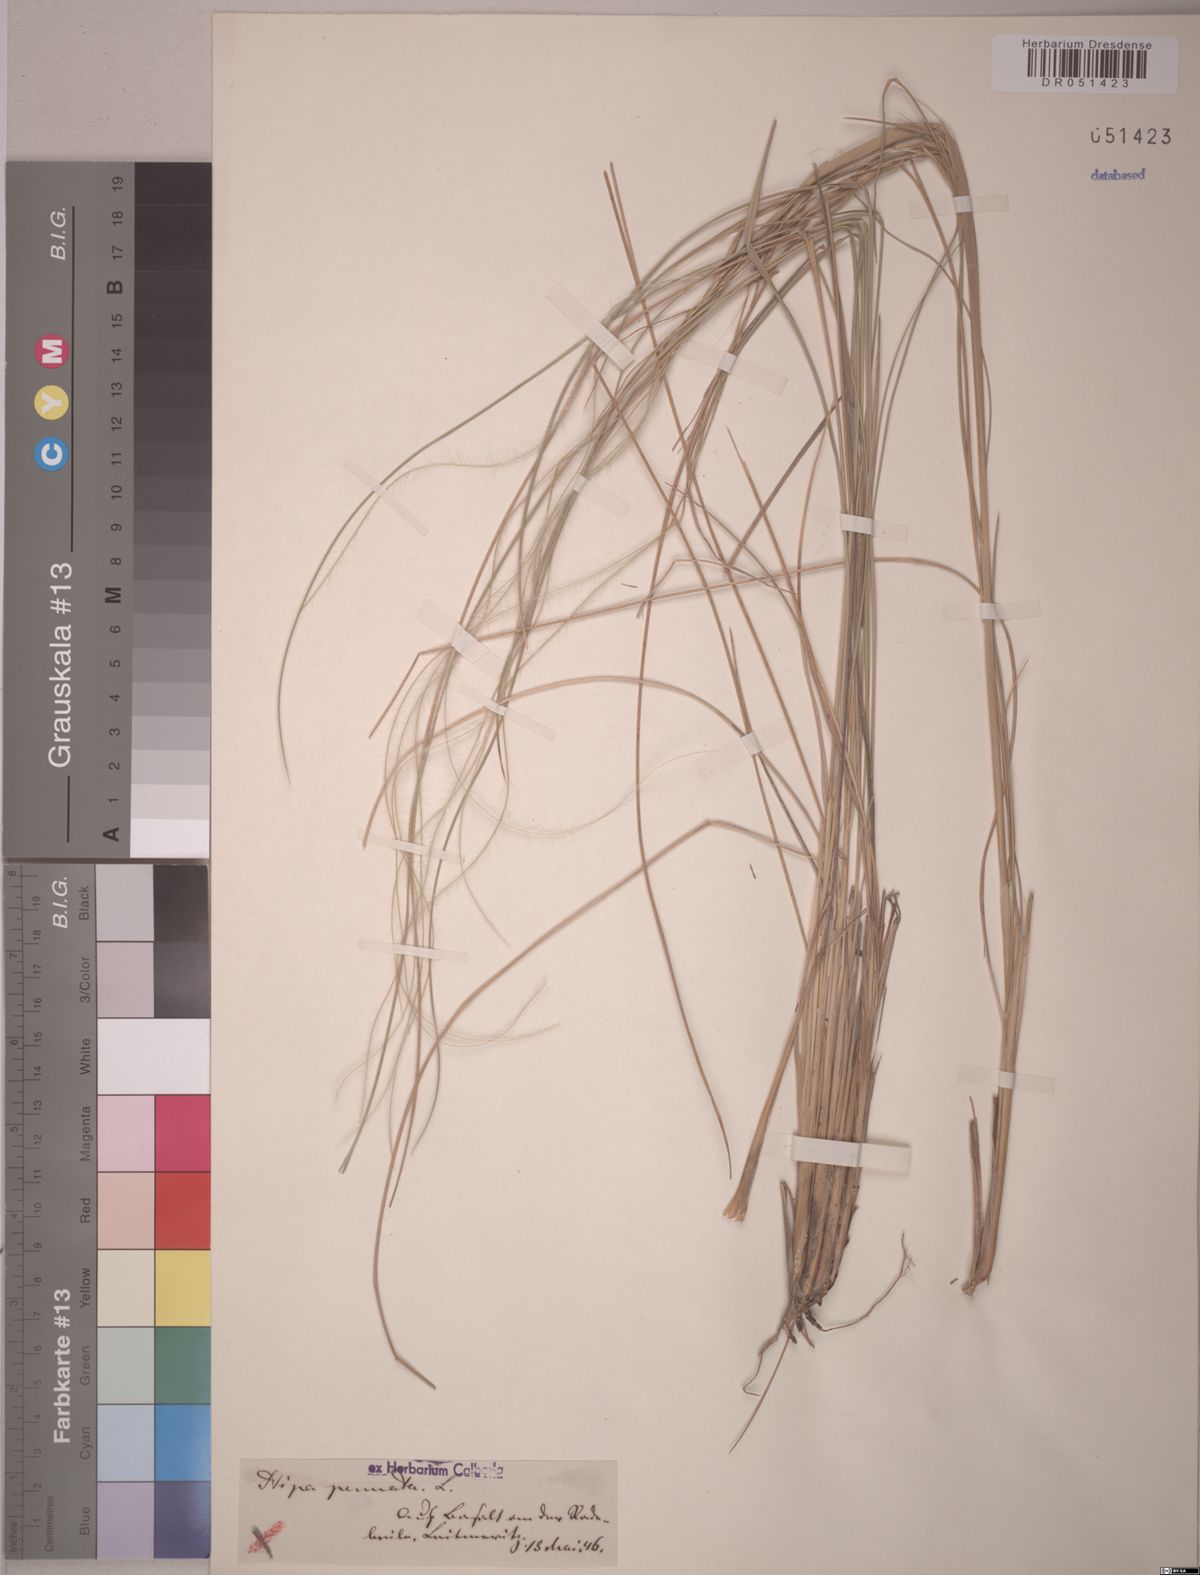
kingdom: Plantae
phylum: Tracheophyta
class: Liliopsida
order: Poales
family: Poaceae
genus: Stipa
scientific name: Stipa pennata
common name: European feather grass
